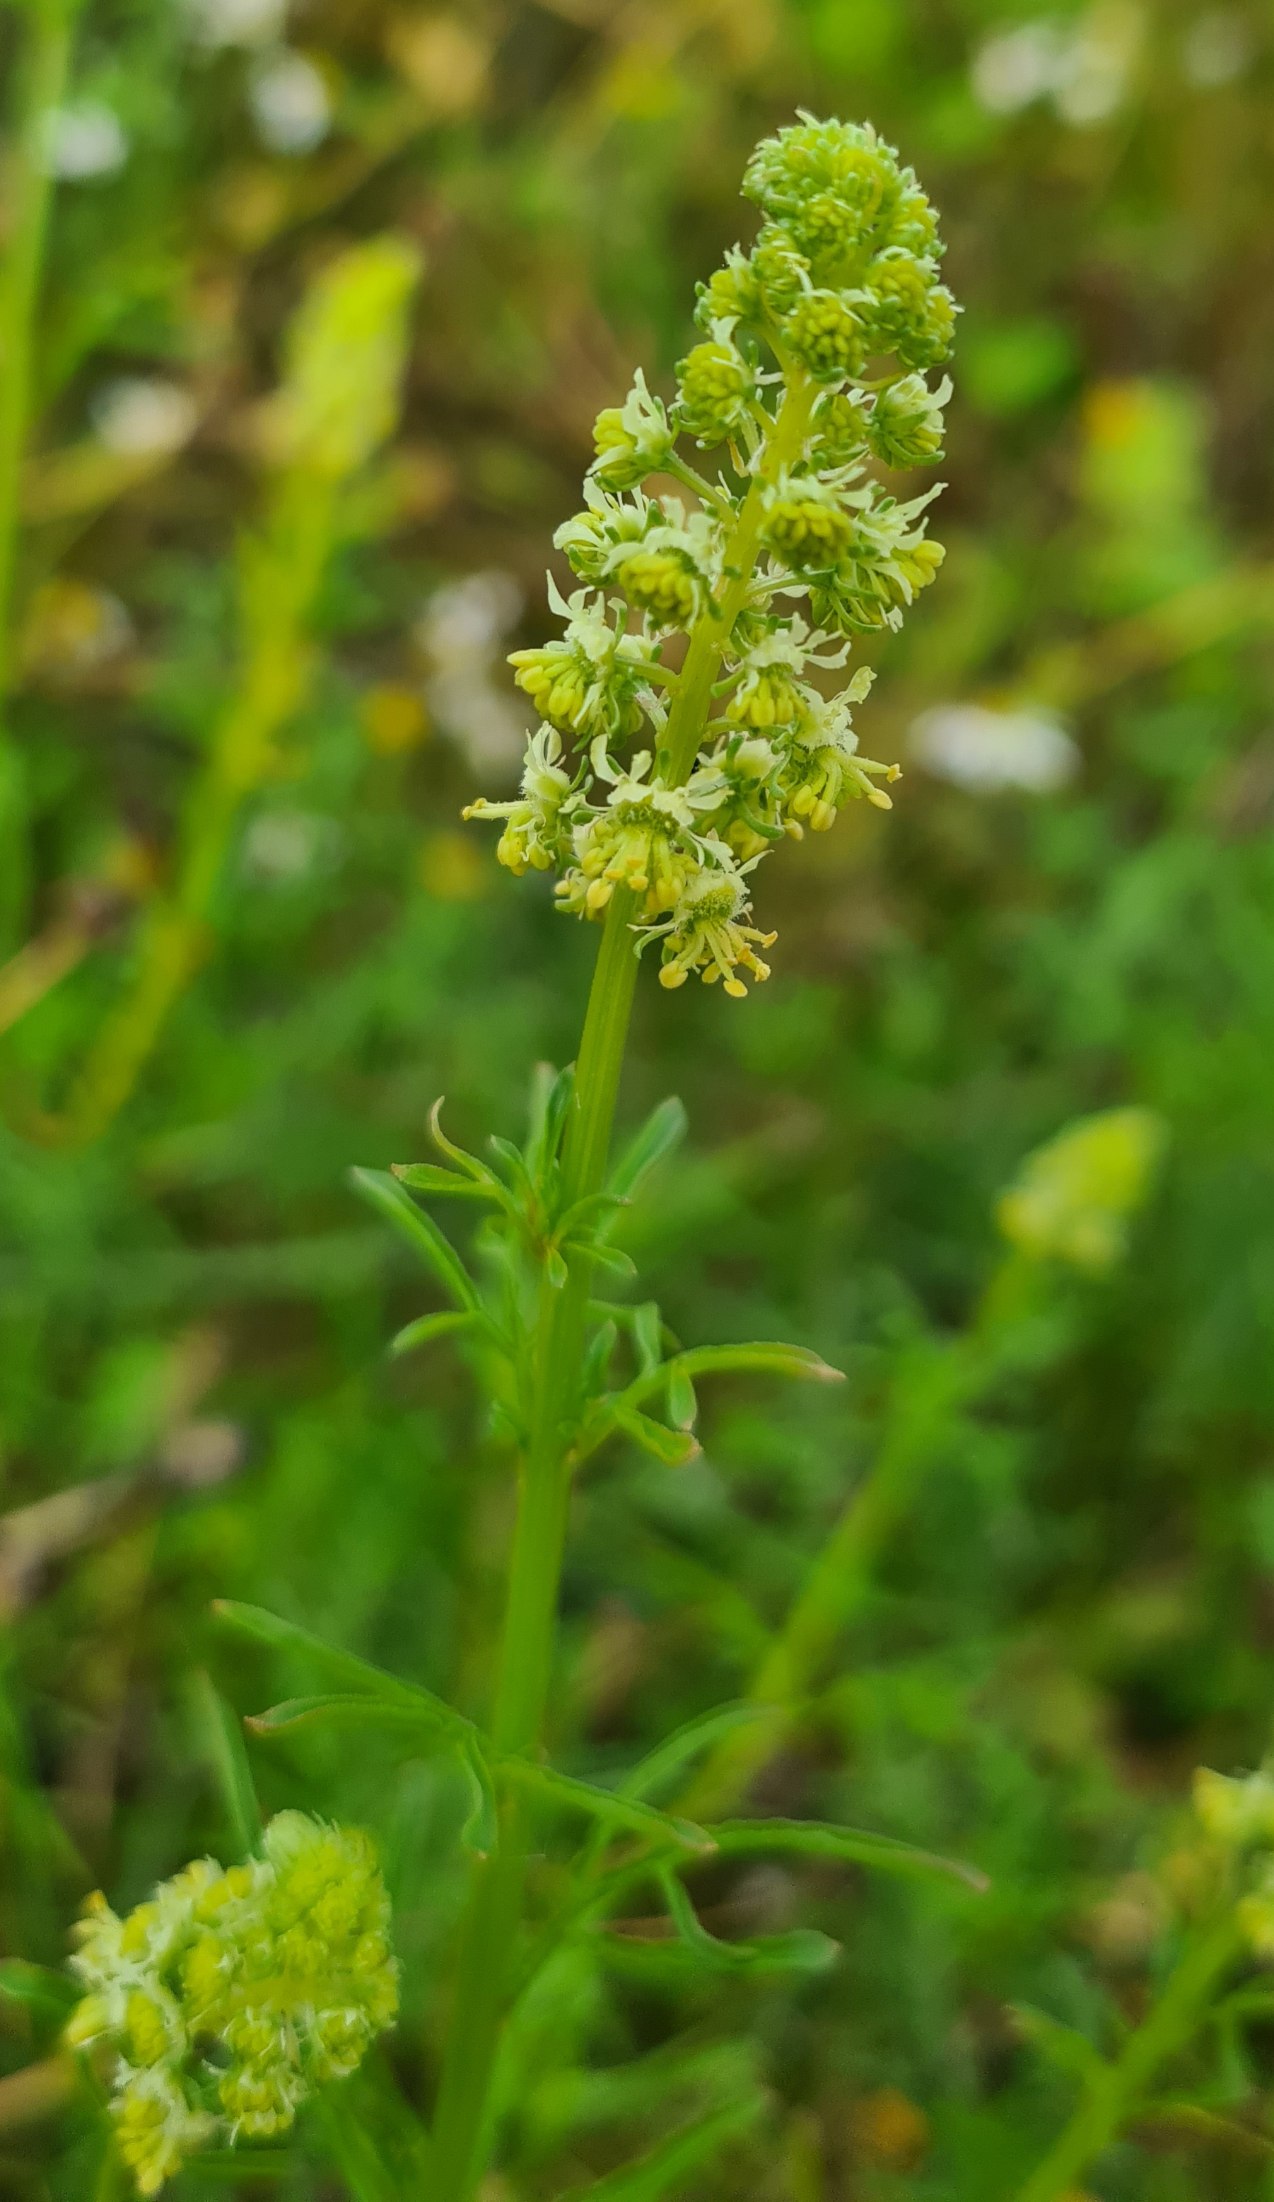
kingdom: Plantae
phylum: Tracheophyta
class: Magnoliopsida
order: Brassicales
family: Resedaceae
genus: Reseda
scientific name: Reseda lutea
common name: Gul reseda
